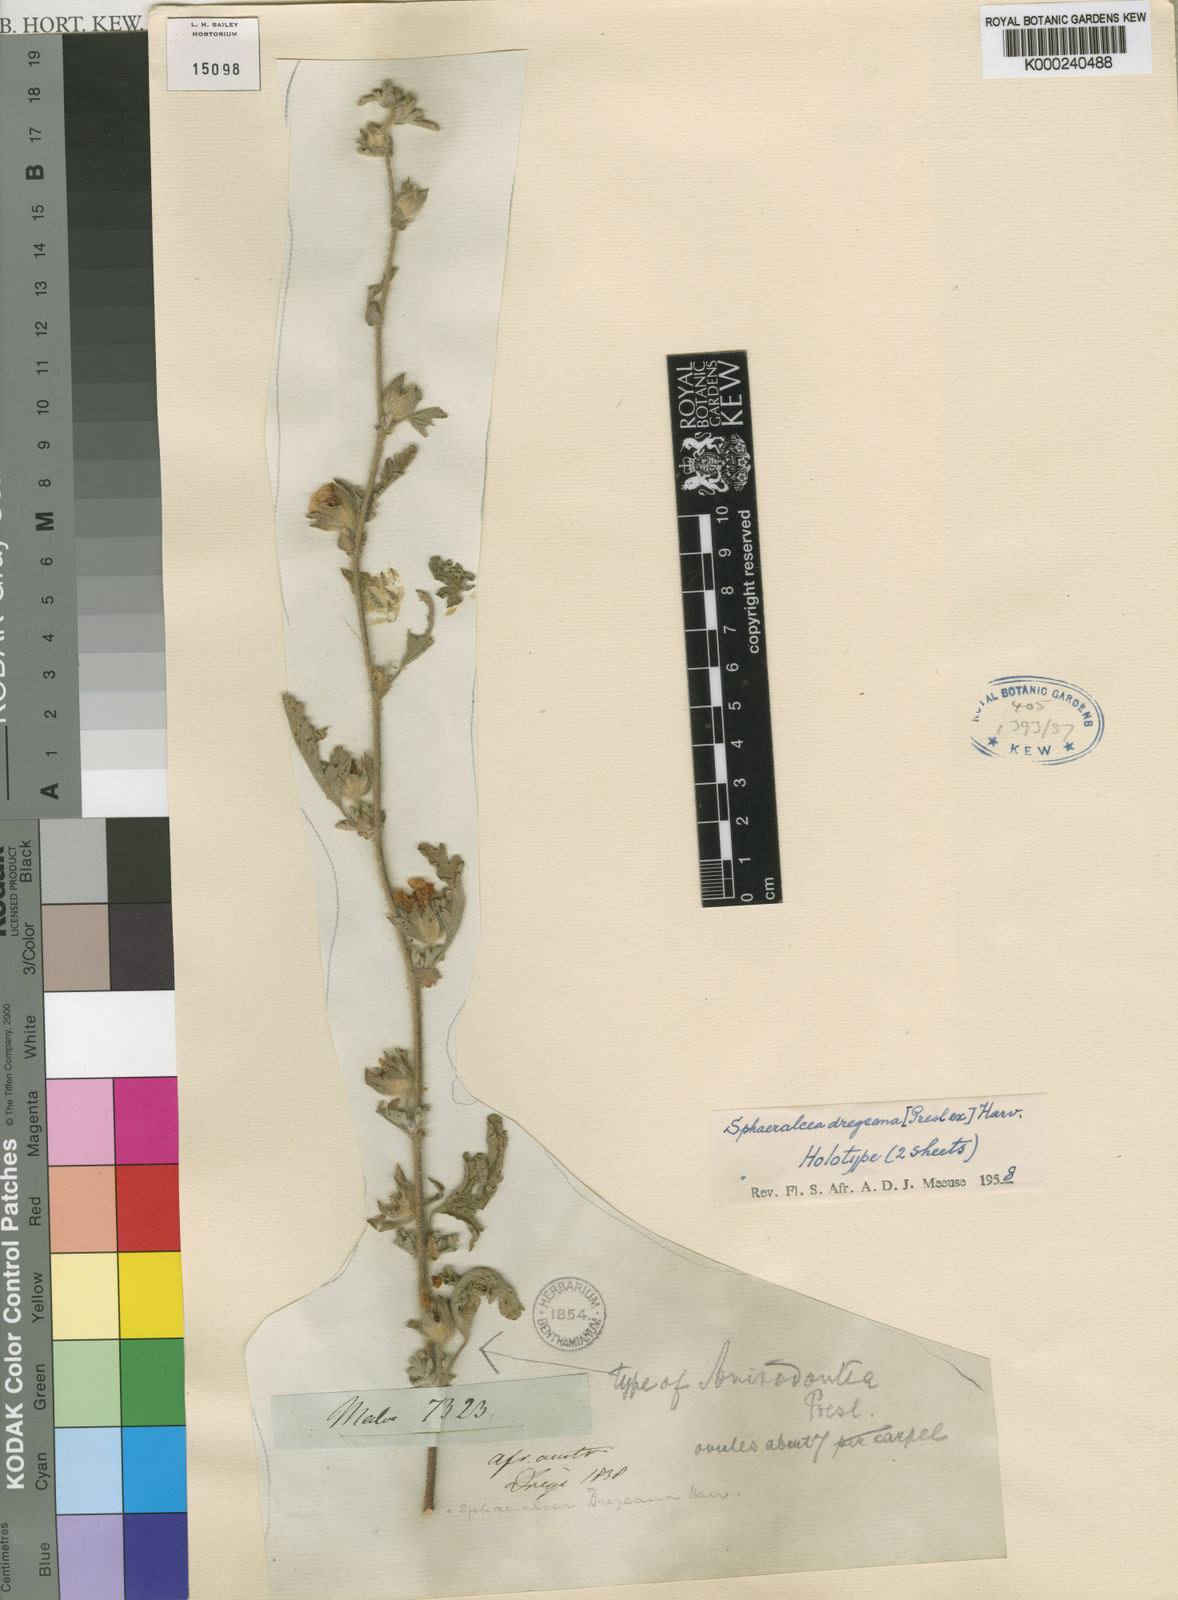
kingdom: Plantae
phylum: Tracheophyta
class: Magnoliopsida
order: Malvales
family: Malvaceae
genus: Anisodontea
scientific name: Anisodontea anomala
